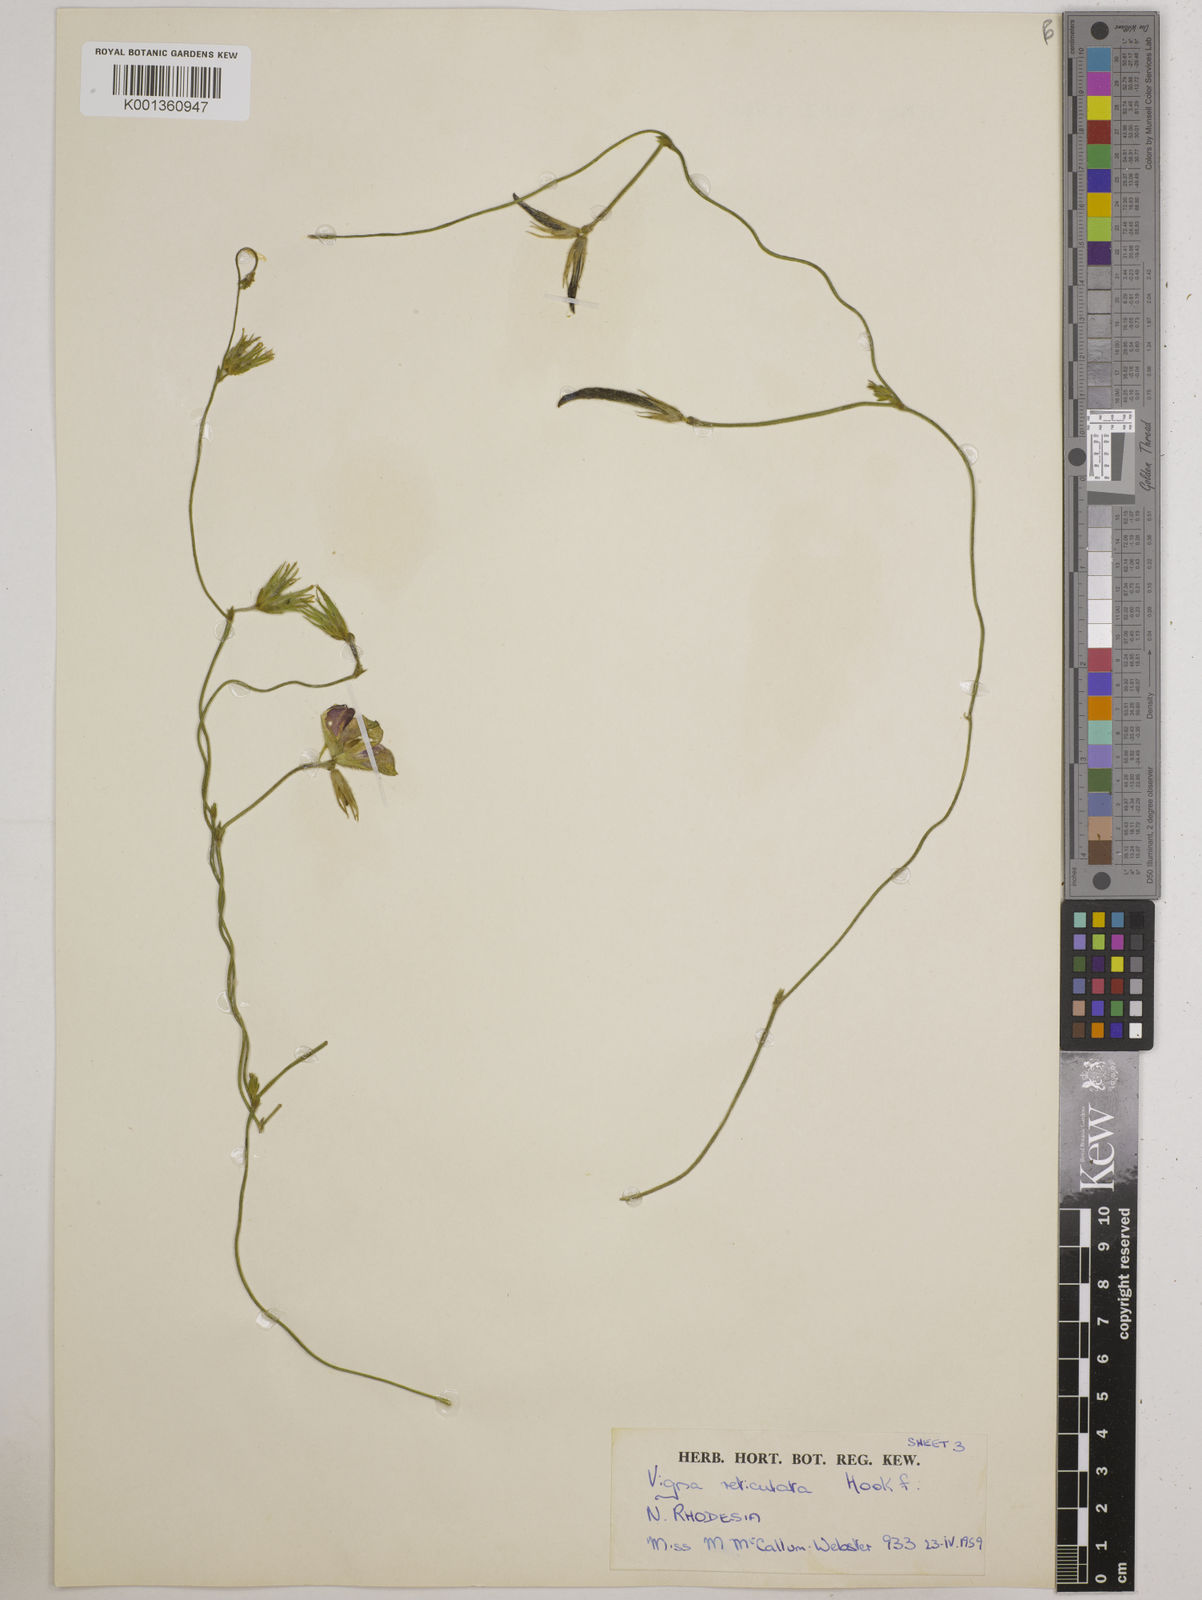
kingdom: Plantae
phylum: Tracheophyta
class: Magnoliopsida
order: Fabales
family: Fabaceae
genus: Vigna
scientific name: Vigna reticulata
